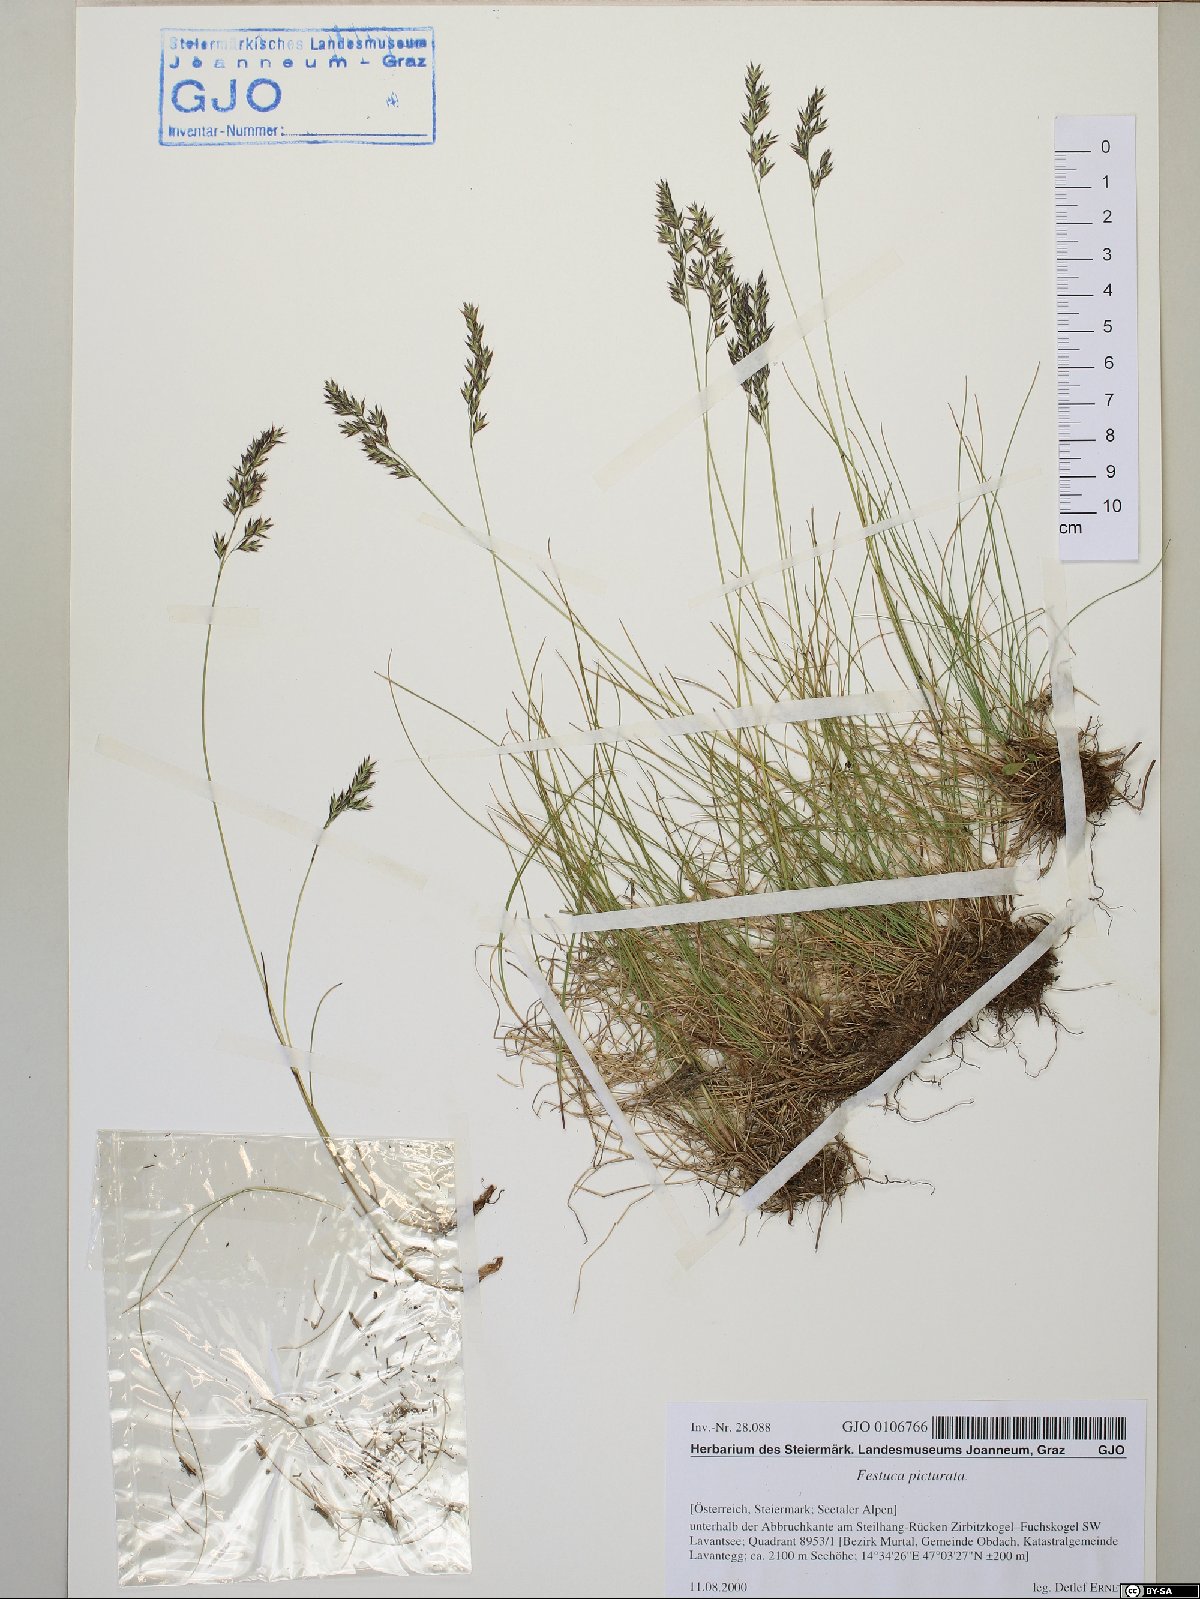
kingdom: Plantae
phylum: Tracheophyta
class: Liliopsida
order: Poales
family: Poaceae
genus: Festuca
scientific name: Festuca picturata
